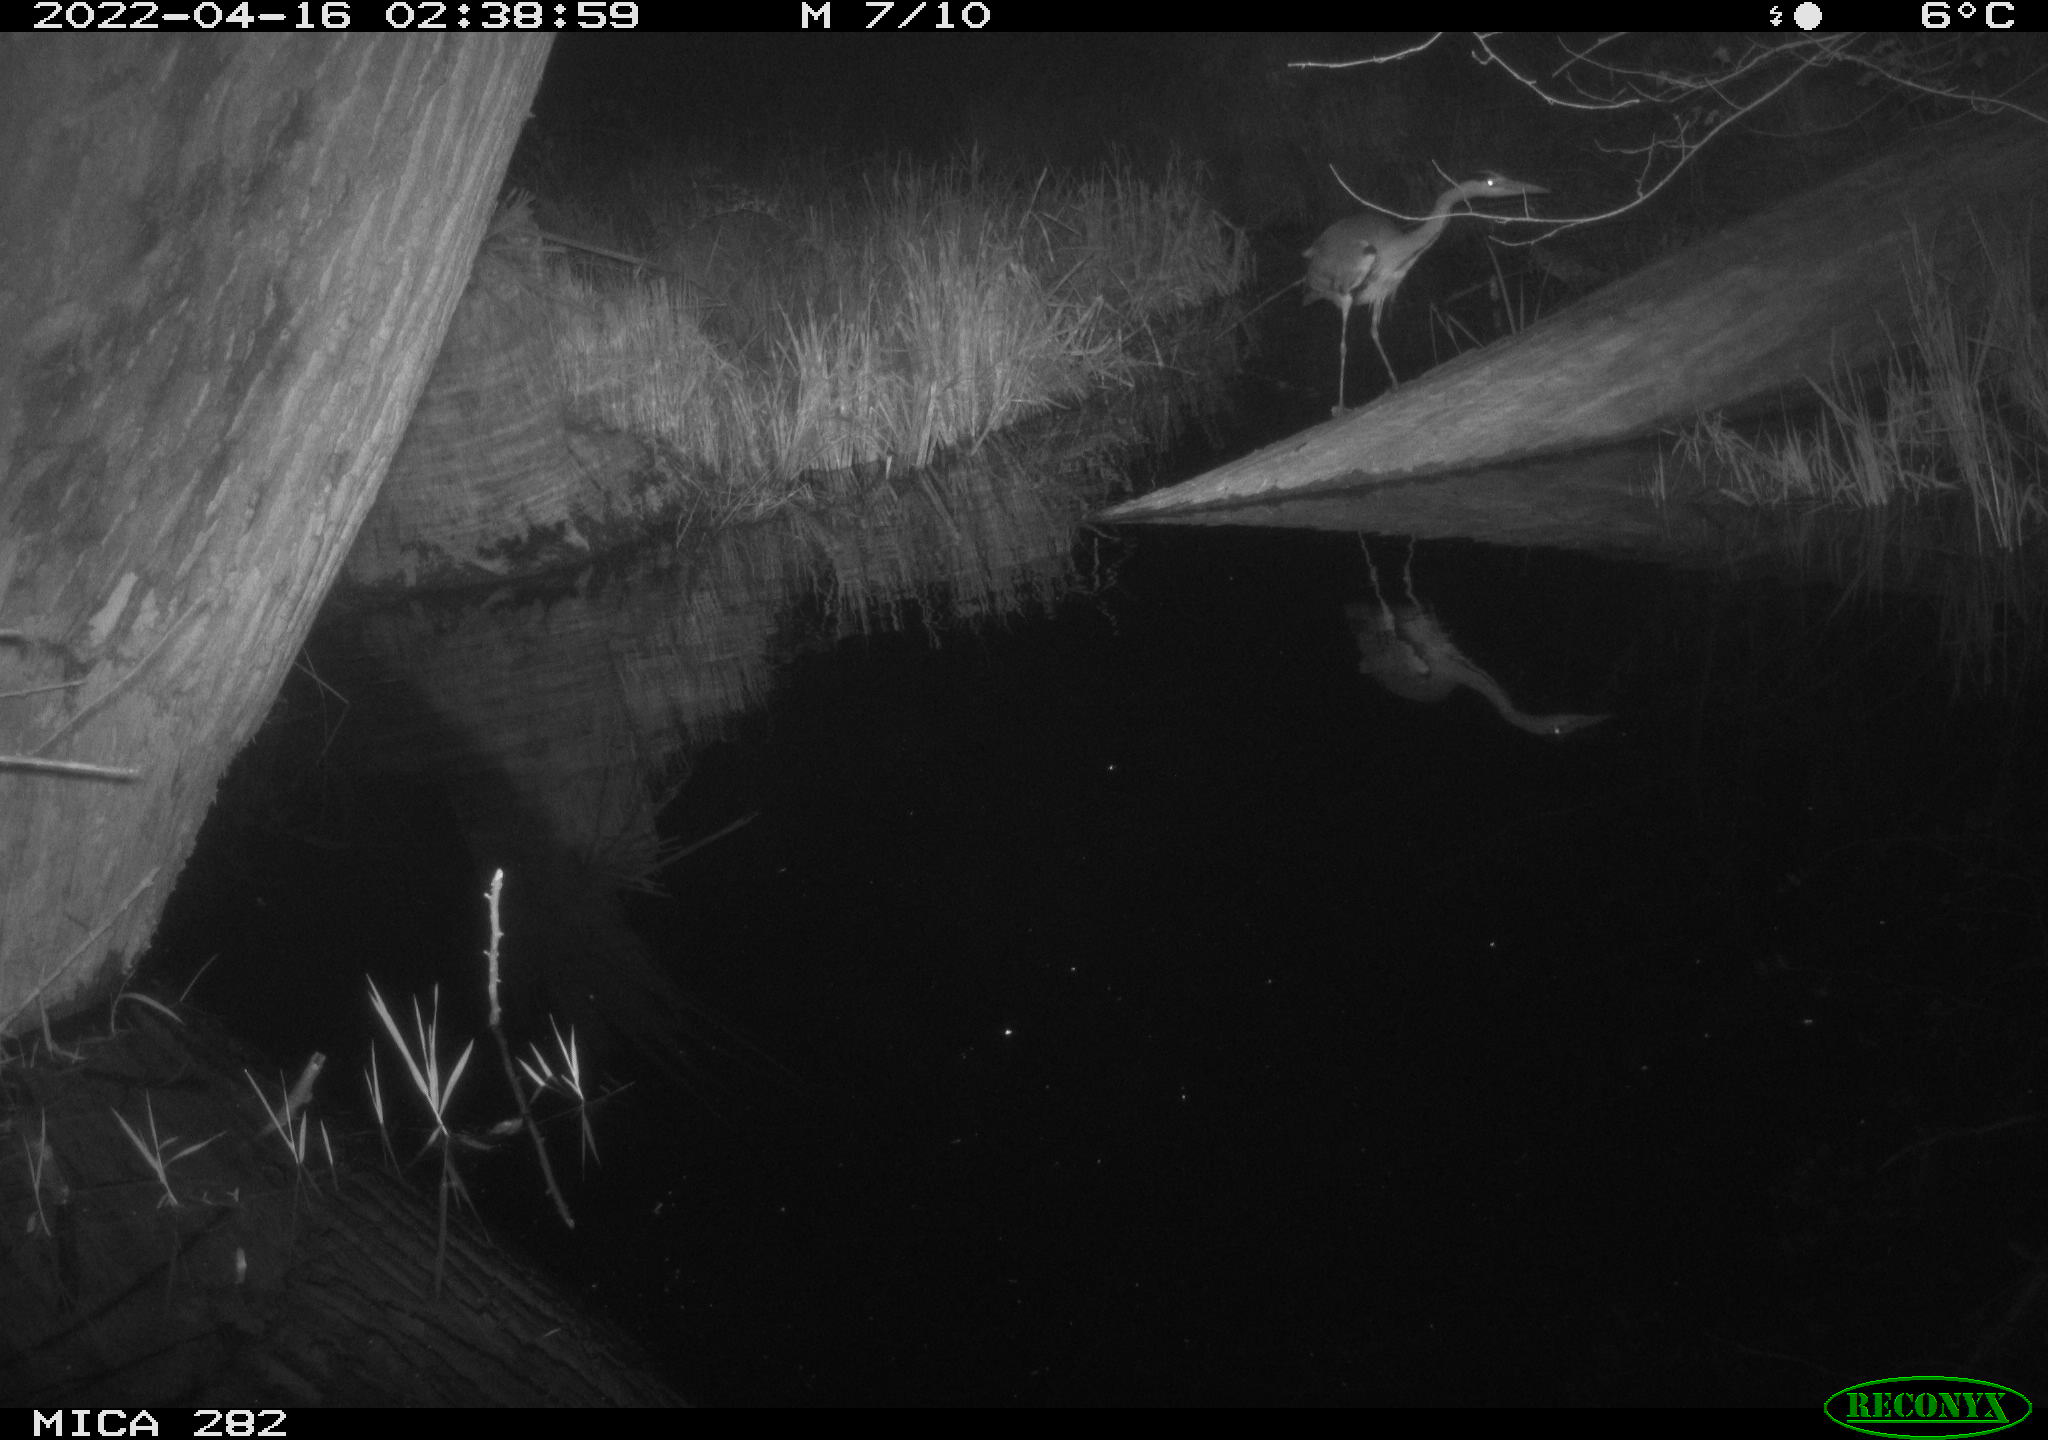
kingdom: Animalia
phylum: Chordata
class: Aves
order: Pelecaniformes
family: Ardeidae
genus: Ardea
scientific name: Ardea
